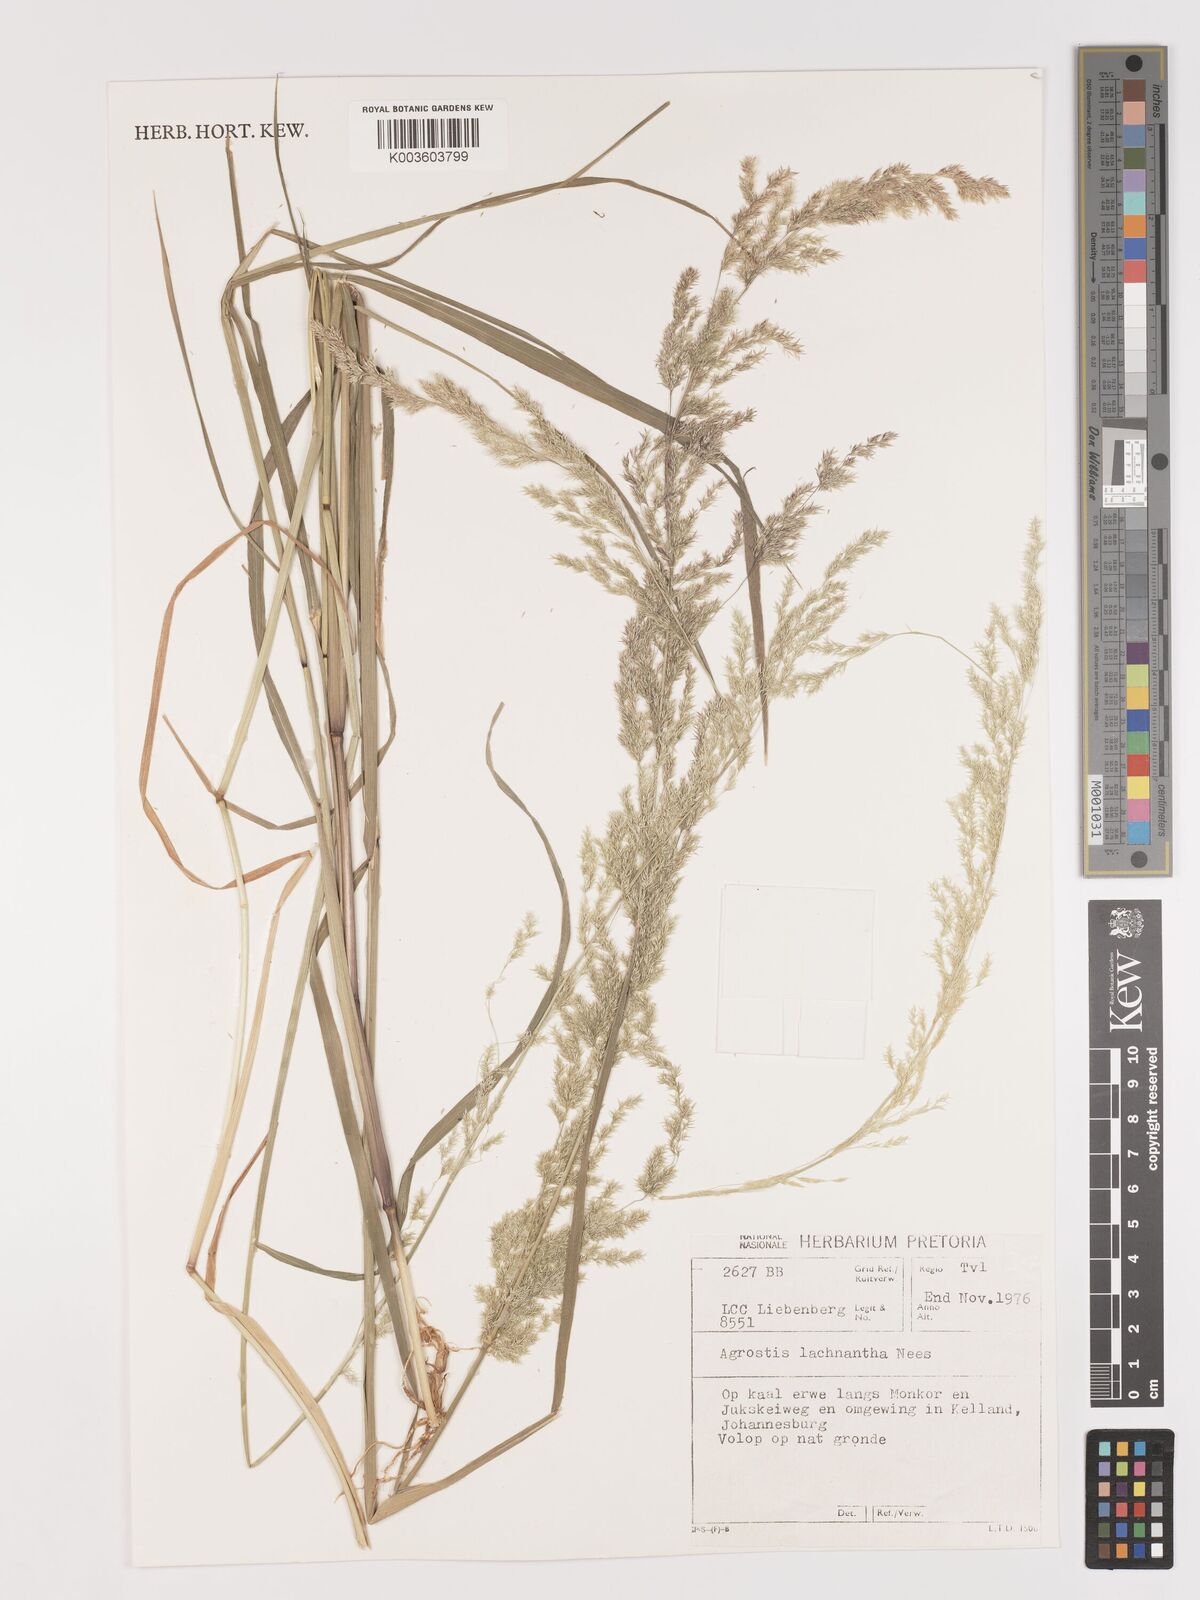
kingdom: Plantae
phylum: Tracheophyta
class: Liliopsida
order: Poales
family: Poaceae
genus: Lachnagrostis
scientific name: Lachnagrostis lachnantha
